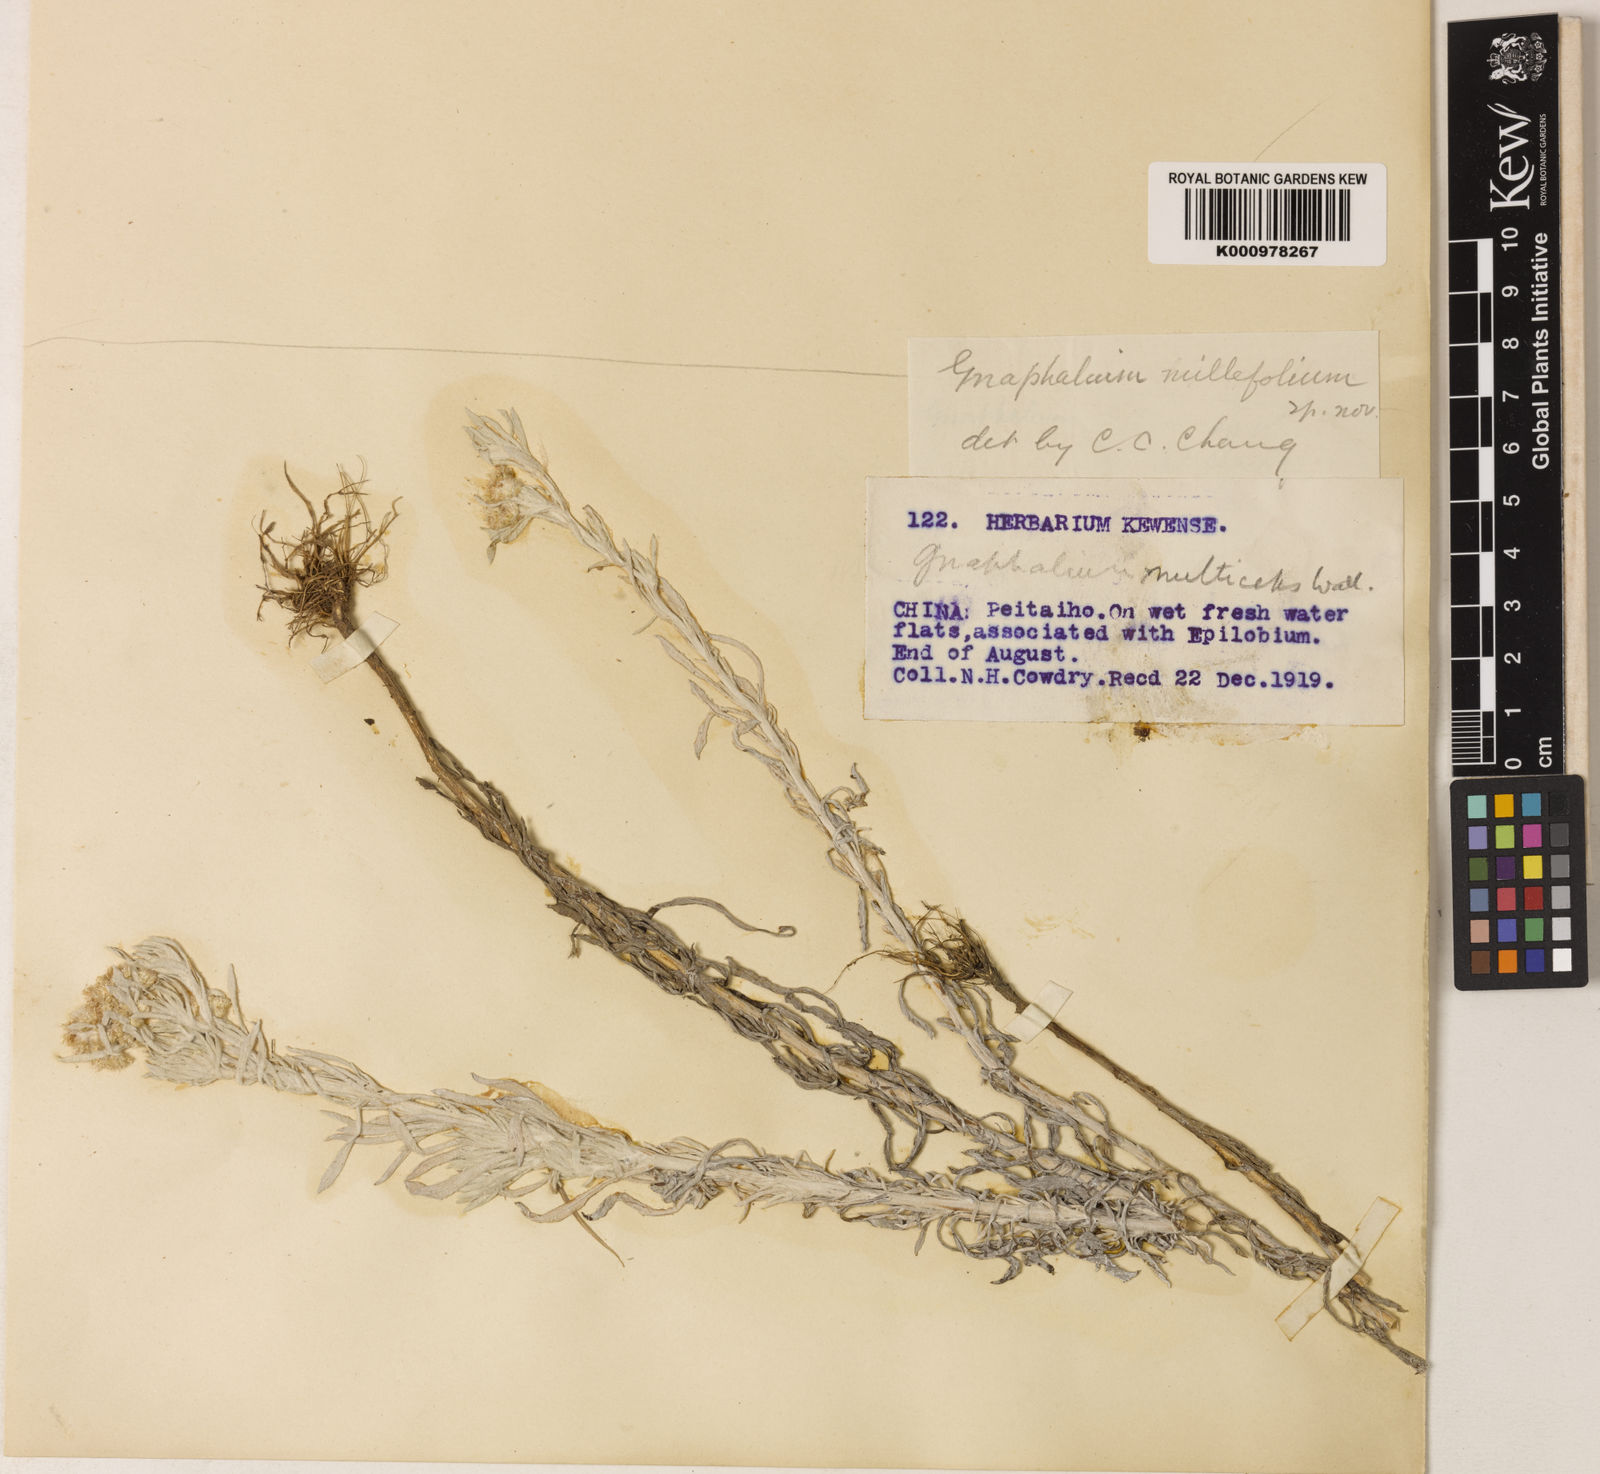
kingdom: Plantae
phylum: Tracheophyta
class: Magnoliopsida
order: Asterales
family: Asteraceae
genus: Gnaphalium
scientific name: Gnaphalium
